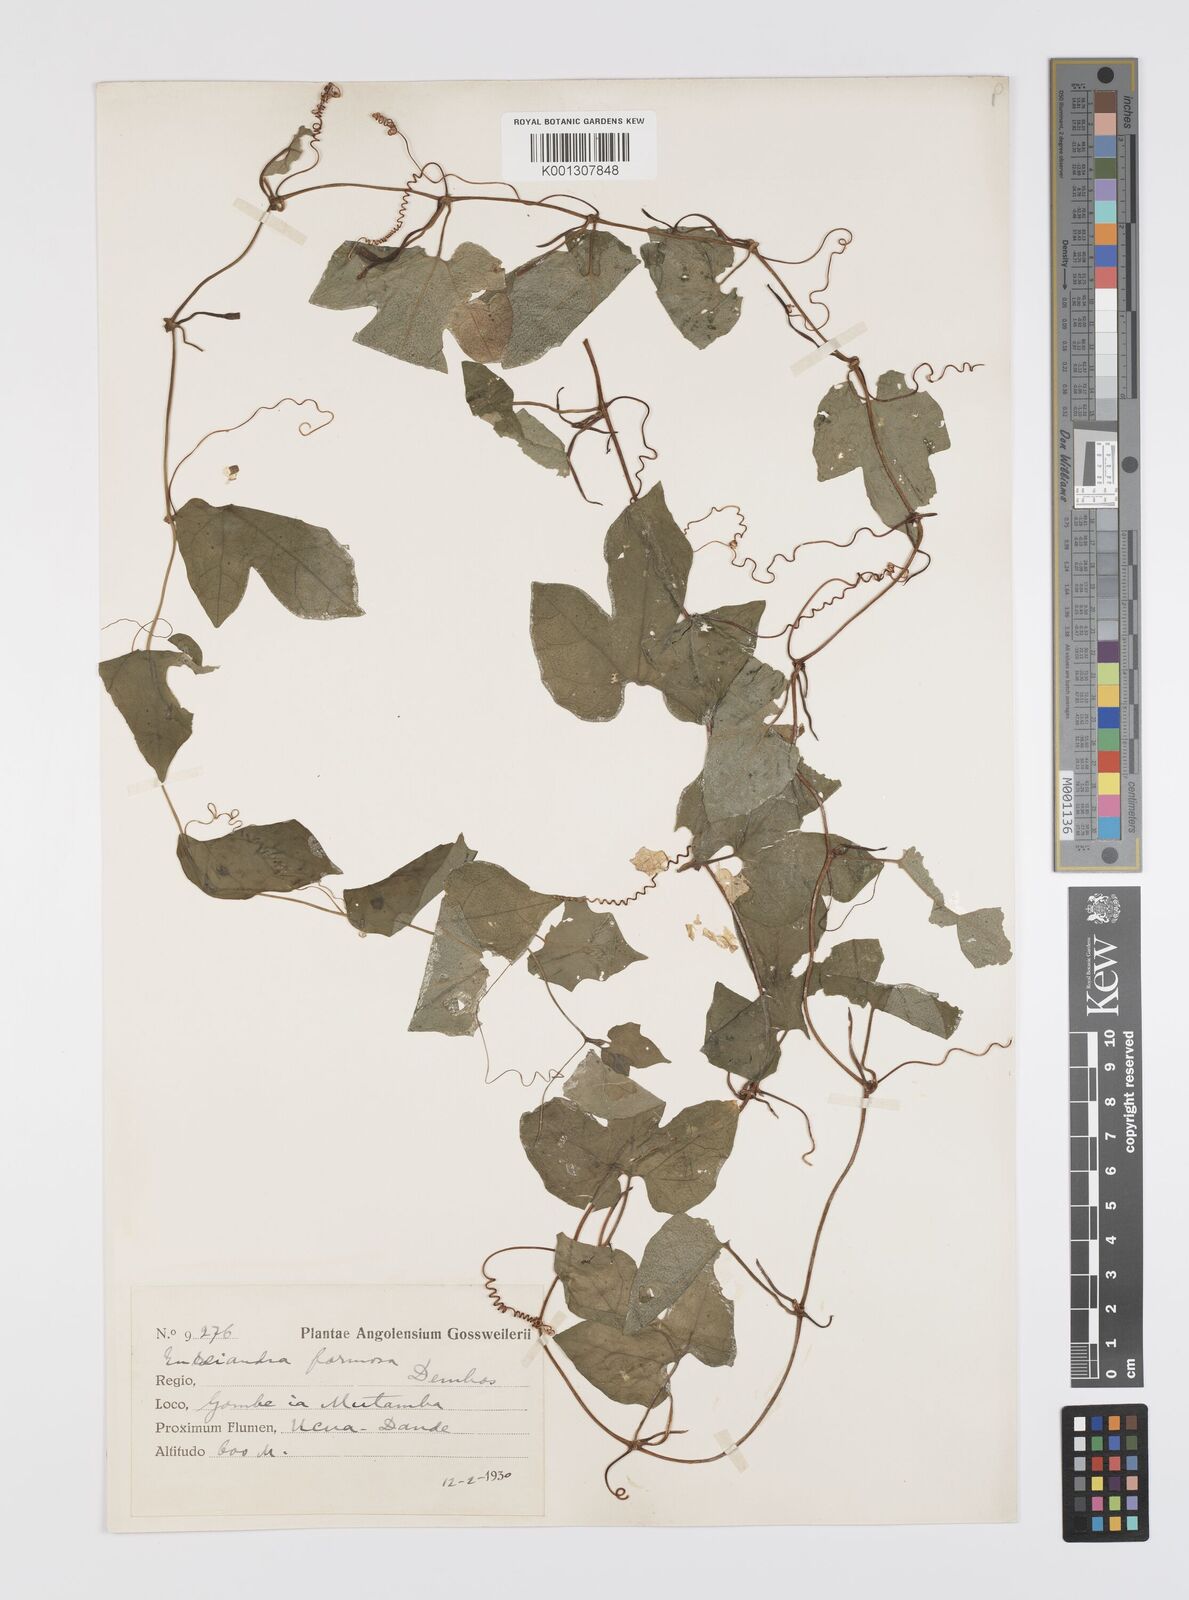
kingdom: Plantae
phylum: Tracheophyta
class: Magnoliopsida
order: Cucurbitales
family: Cucurbitaceae
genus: Eureiandra
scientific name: Eureiandra formosa
